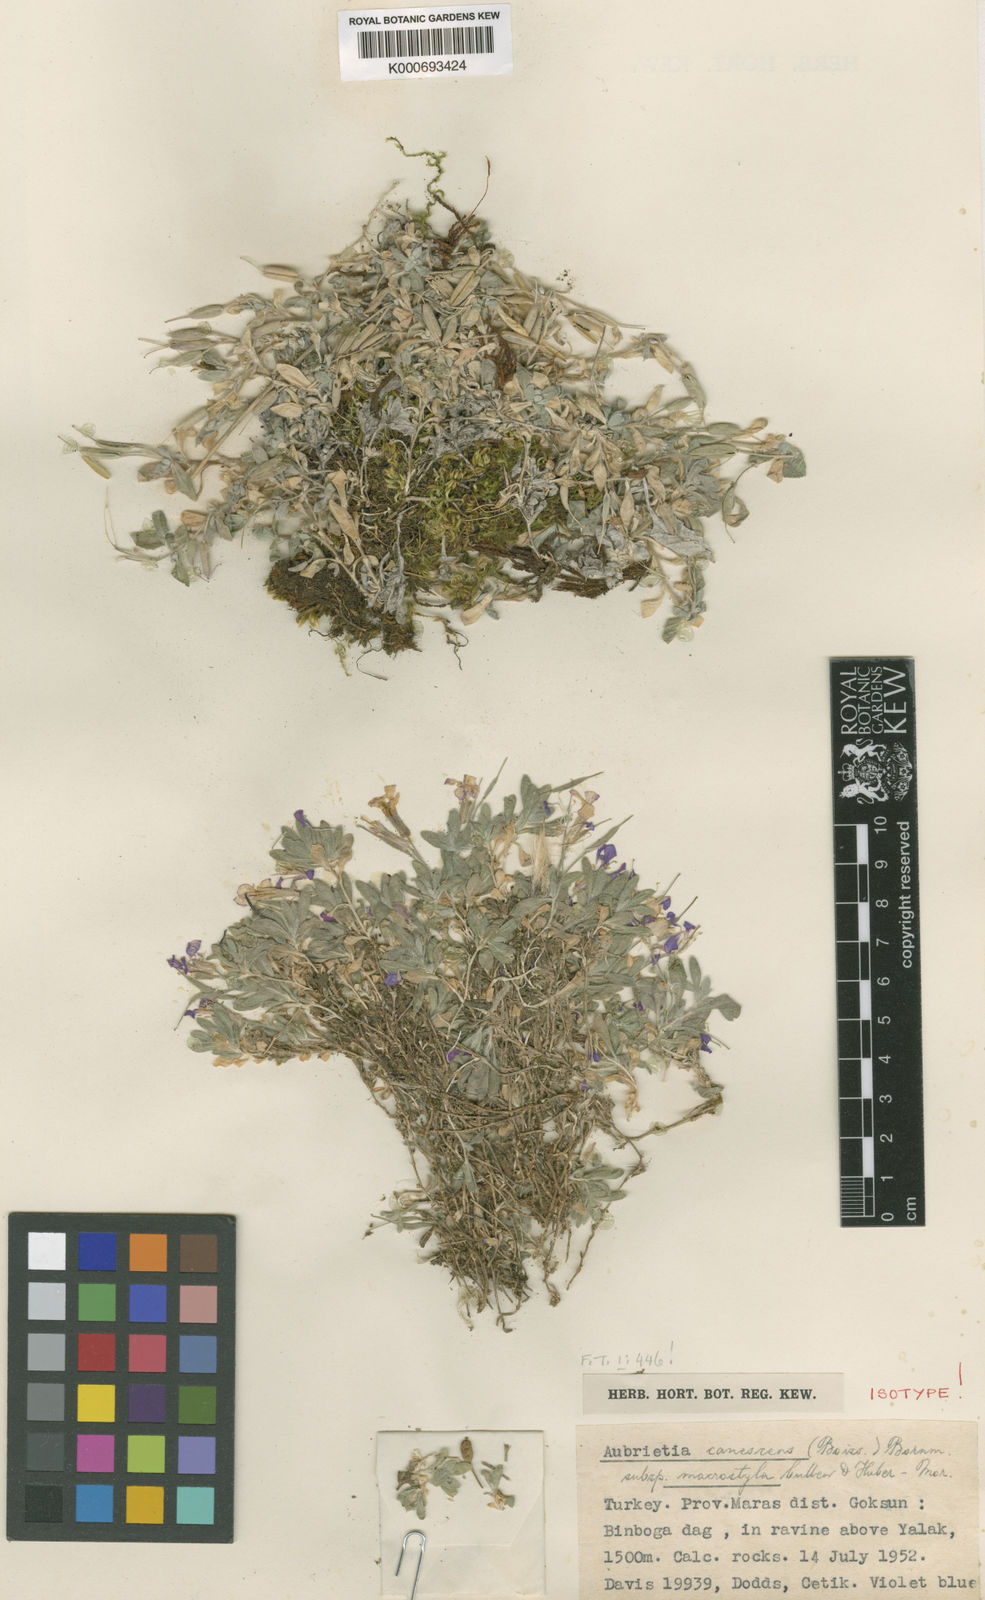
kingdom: Plantae
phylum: Tracheophyta
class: Magnoliopsida
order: Brassicales
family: Brassicaceae
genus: Aubrieta
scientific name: Aubrieta
